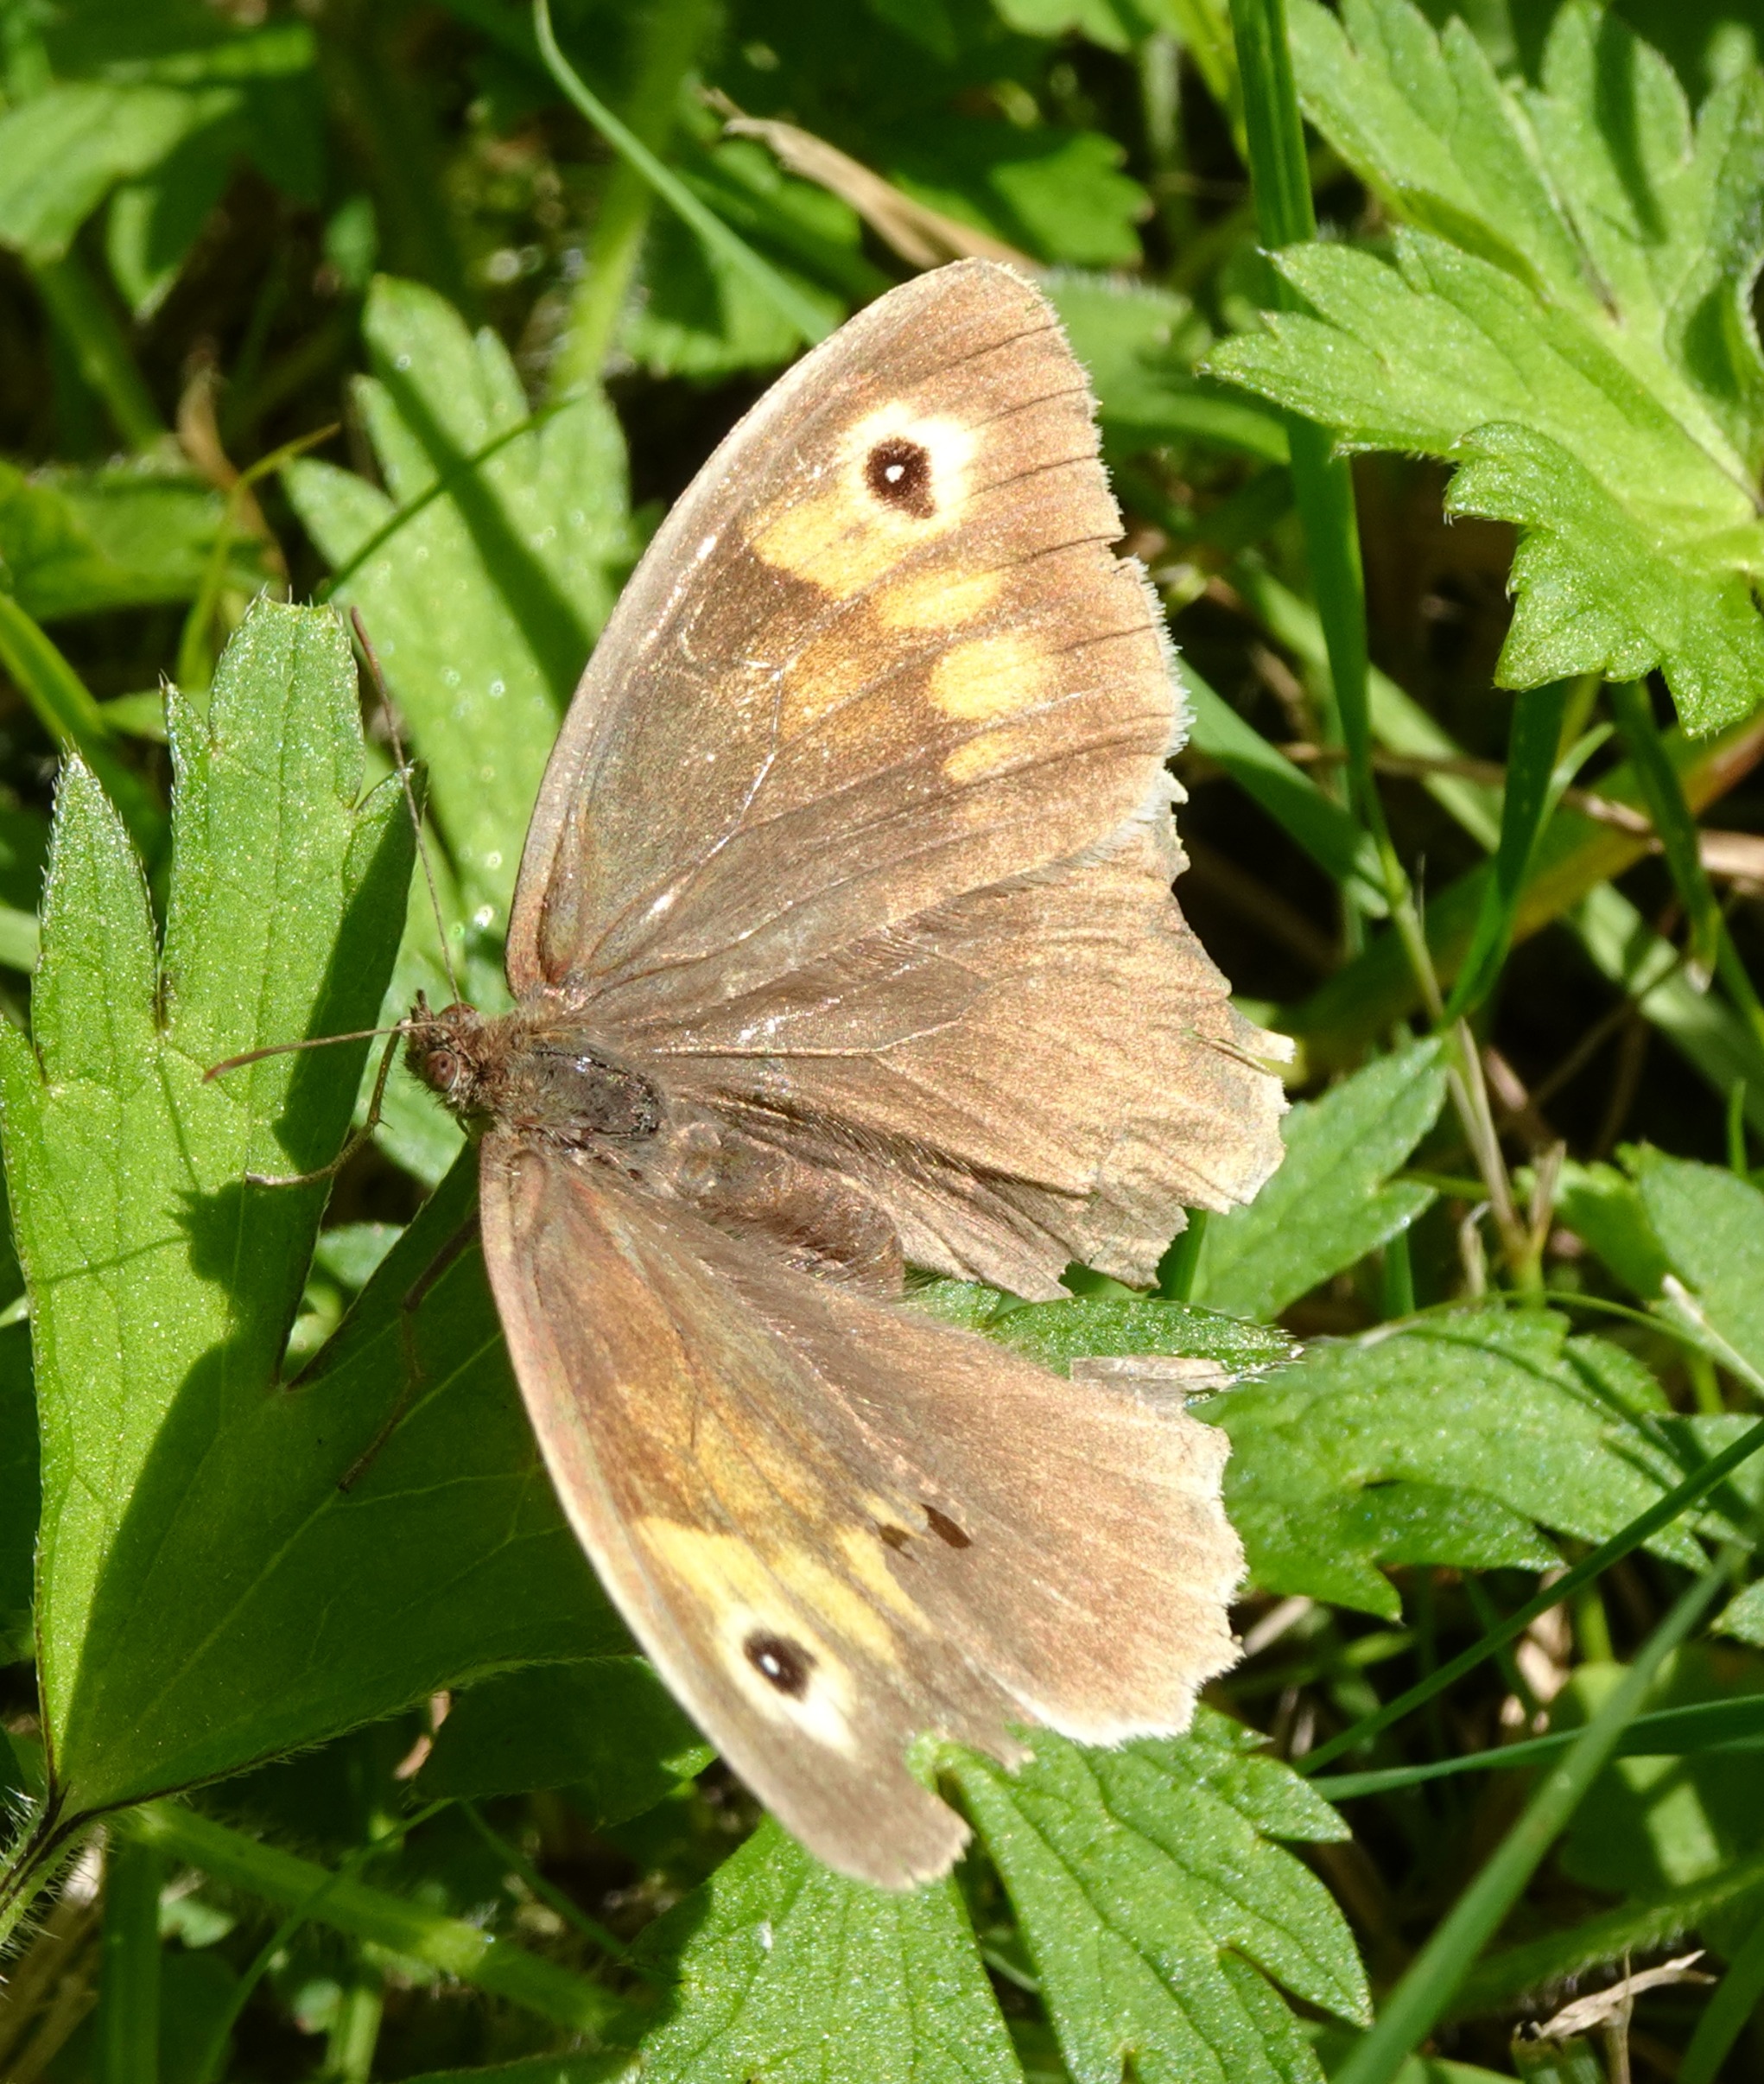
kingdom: Animalia
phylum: Arthropoda
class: Insecta
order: Lepidoptera
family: Nymphalidae
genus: Maniola
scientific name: Maniola jurtina
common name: Græsrandøje
